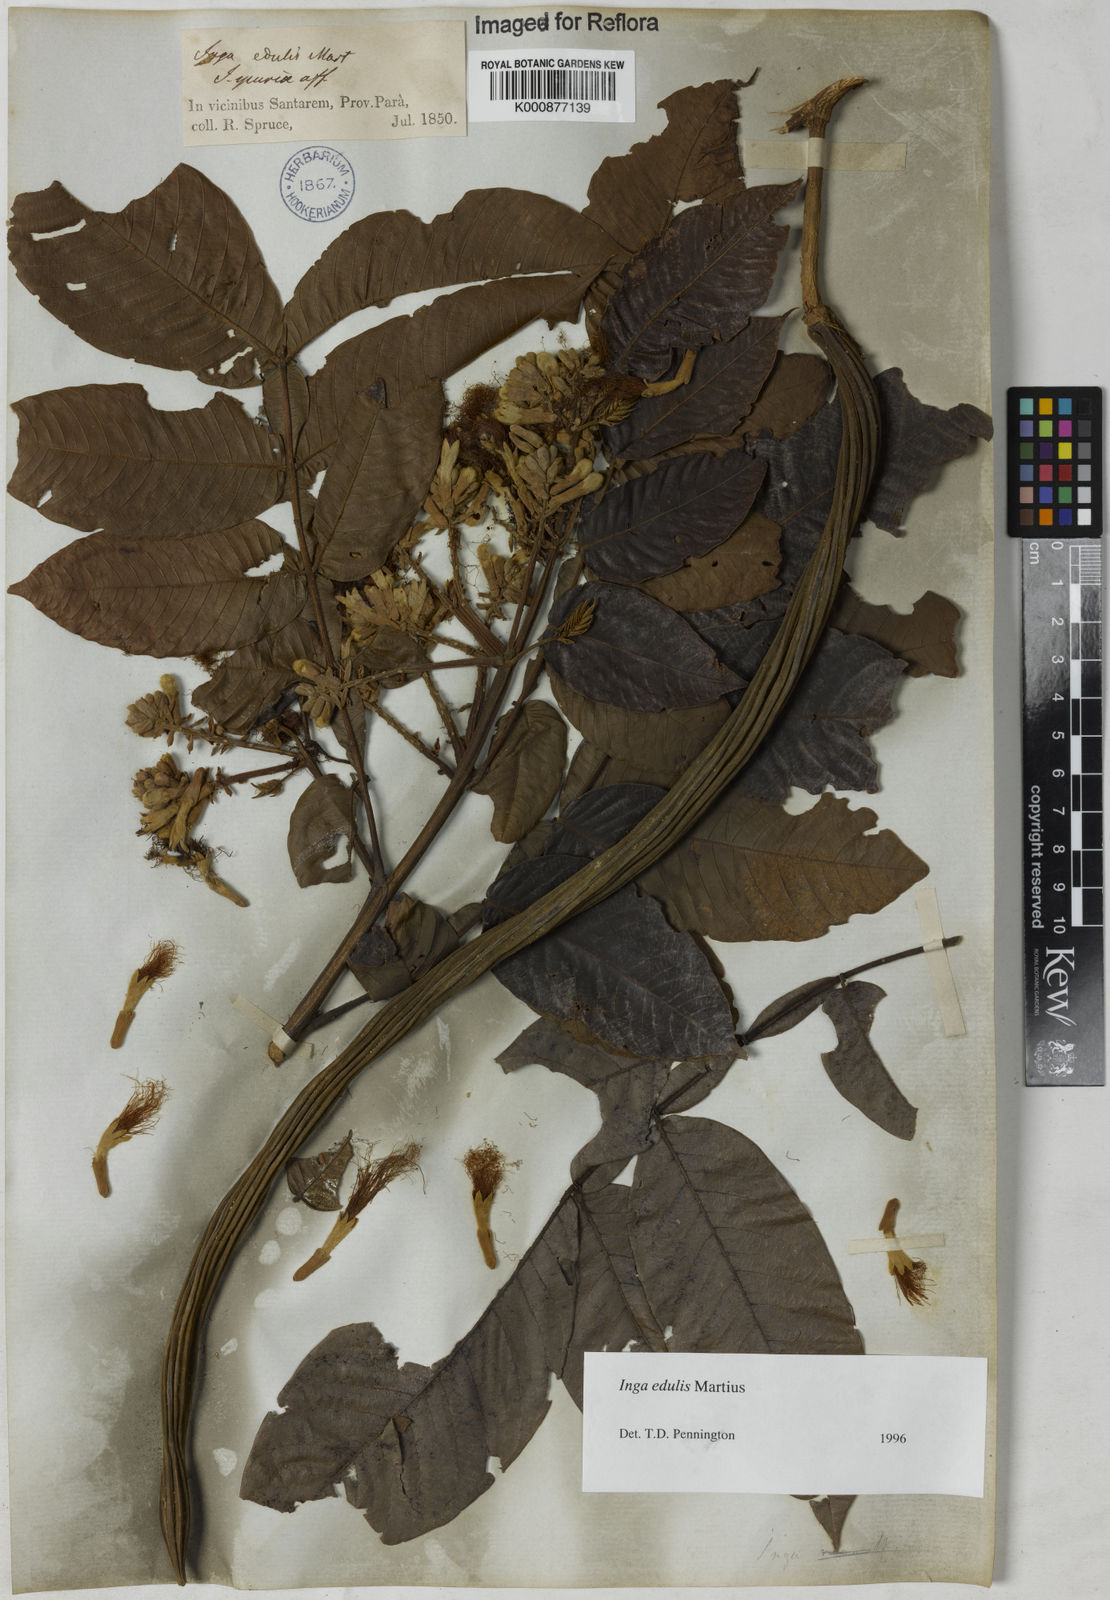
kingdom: Plantae
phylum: Tracheophyta
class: Magnoliopsida
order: Fabales
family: Fabaceae
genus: Inga
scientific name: Inga edulis
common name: Ice cream bean
